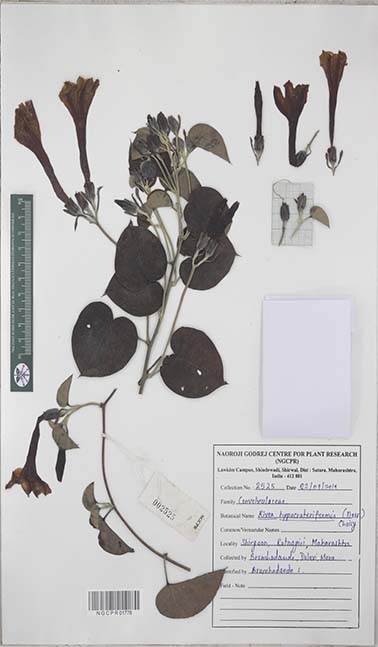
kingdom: Plantae
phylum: Tracheophyta
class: Magnoliopsida
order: Solanales
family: Convolvulaceae
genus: Rivea
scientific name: Rivea hypocrateriformis
